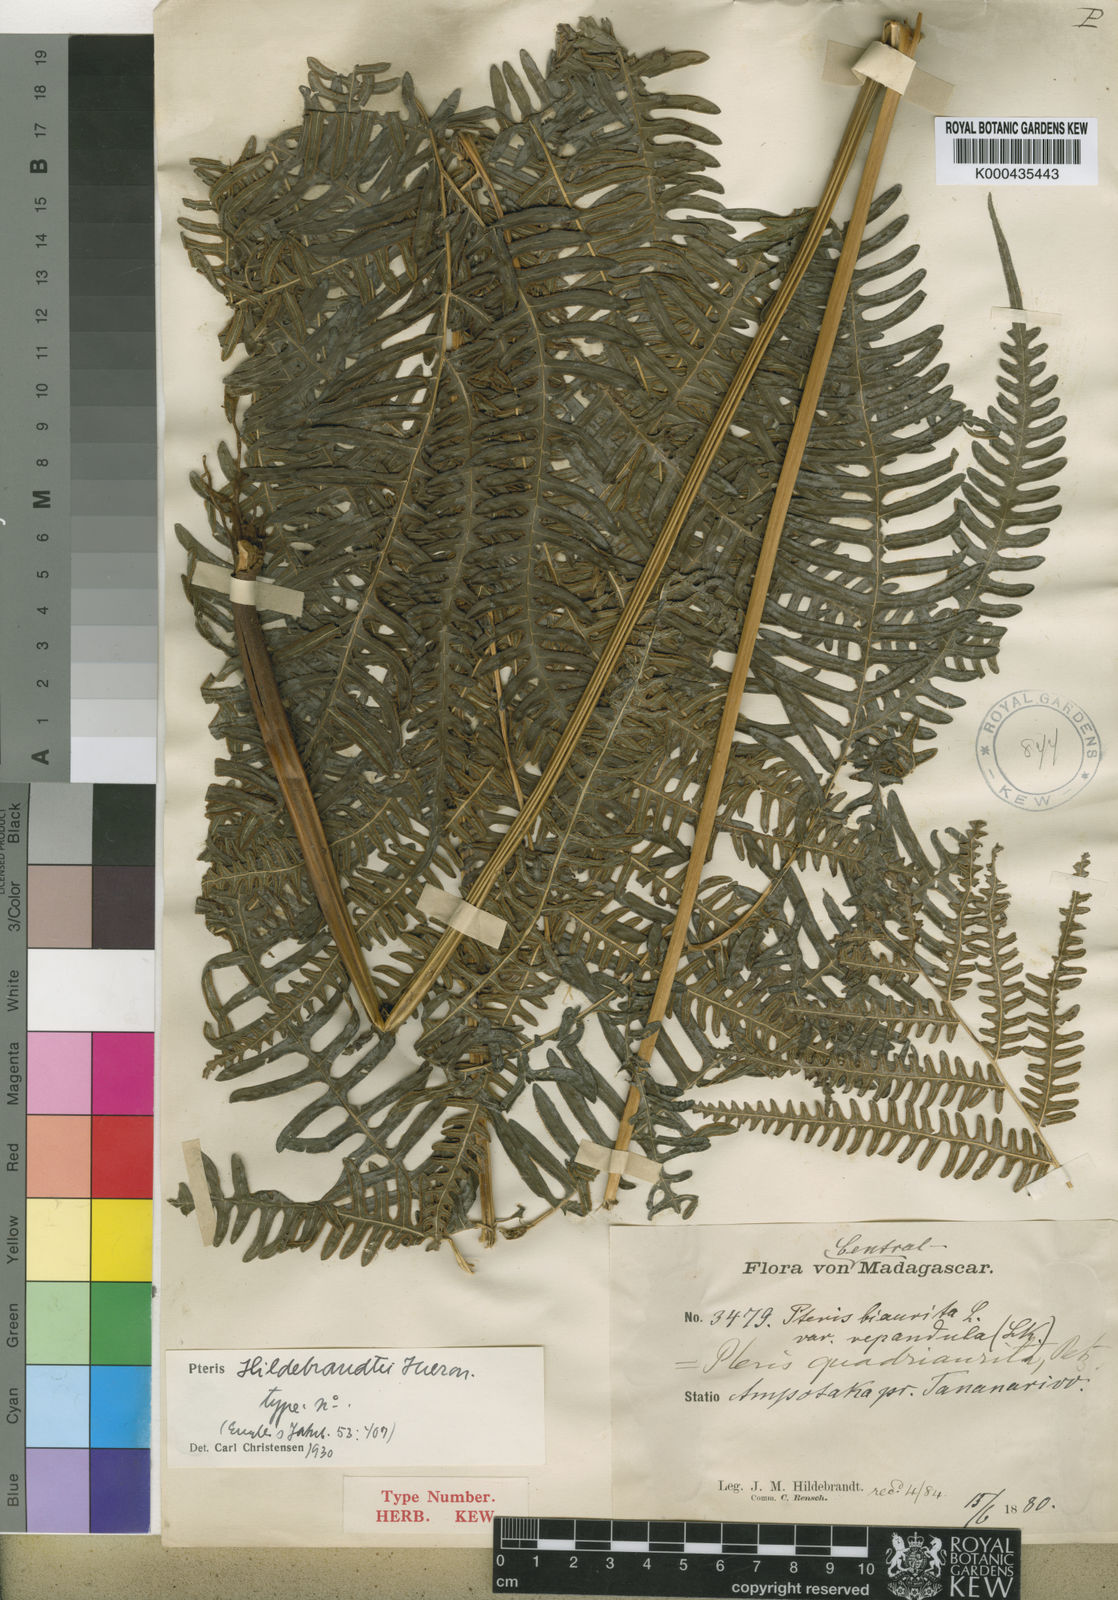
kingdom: Plantae
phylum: Tracheophyta
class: Polypodiopsida
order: Polypodiales
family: Pteridaceae
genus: Pteris
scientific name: Pteris linearis
